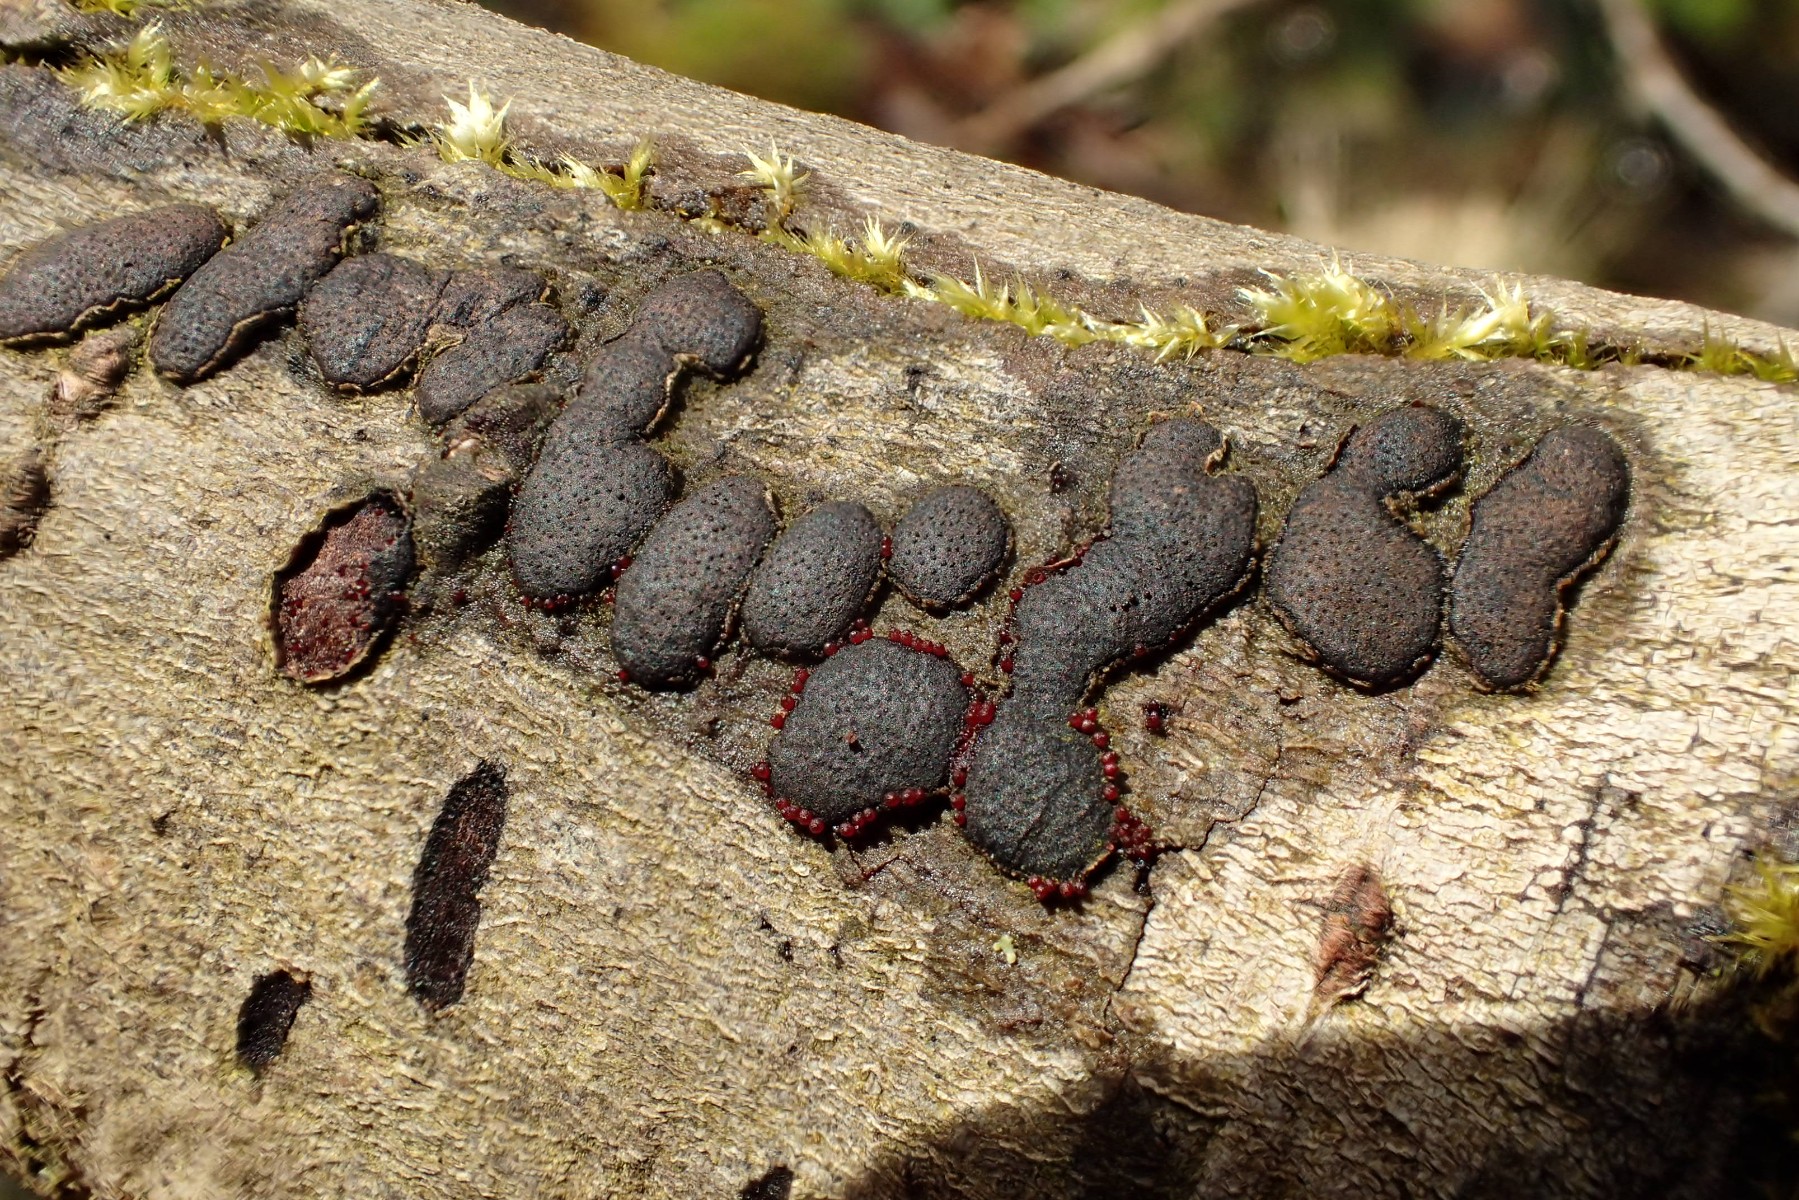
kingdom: Fungi
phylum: Ascomycota
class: Sordariomycetes
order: Xylariales
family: Diatrypaceae
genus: Diatrype
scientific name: Diatrype bullata
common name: pile-kulskorpe
